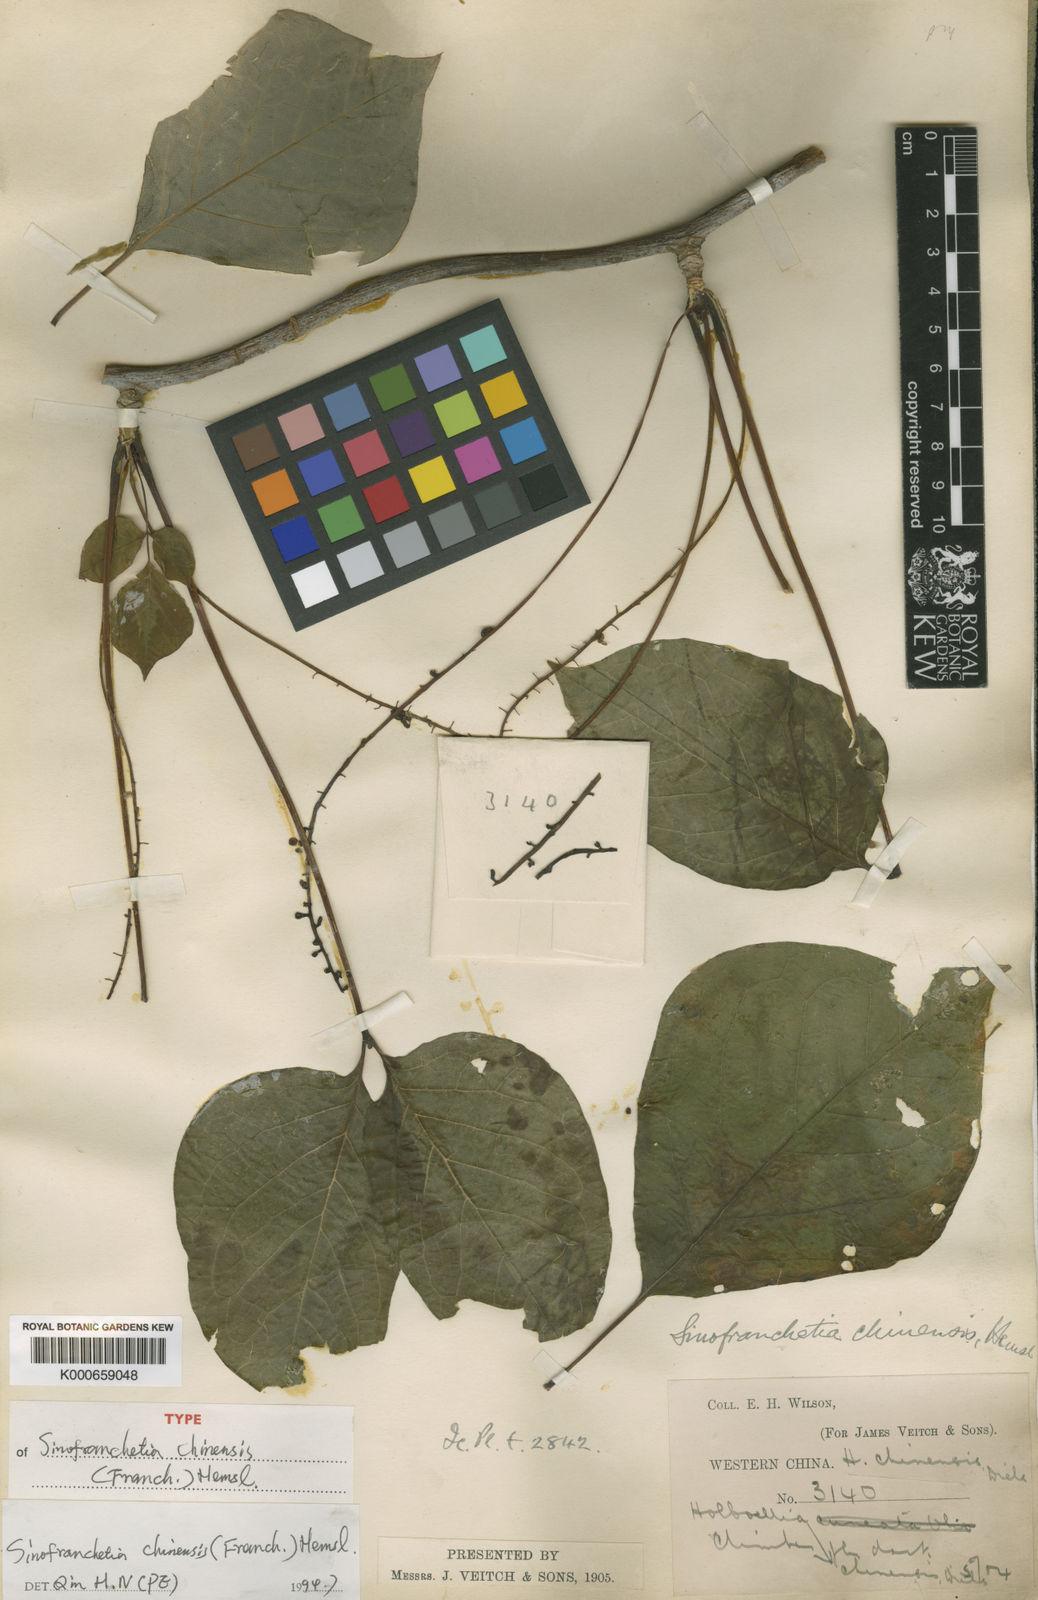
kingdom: Plantae
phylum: Tracheophyta
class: Magnoliopsida
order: Ranunculales
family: Lardizabalaceae
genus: Sinofranchetia
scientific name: Sinofranchetia chinensis
